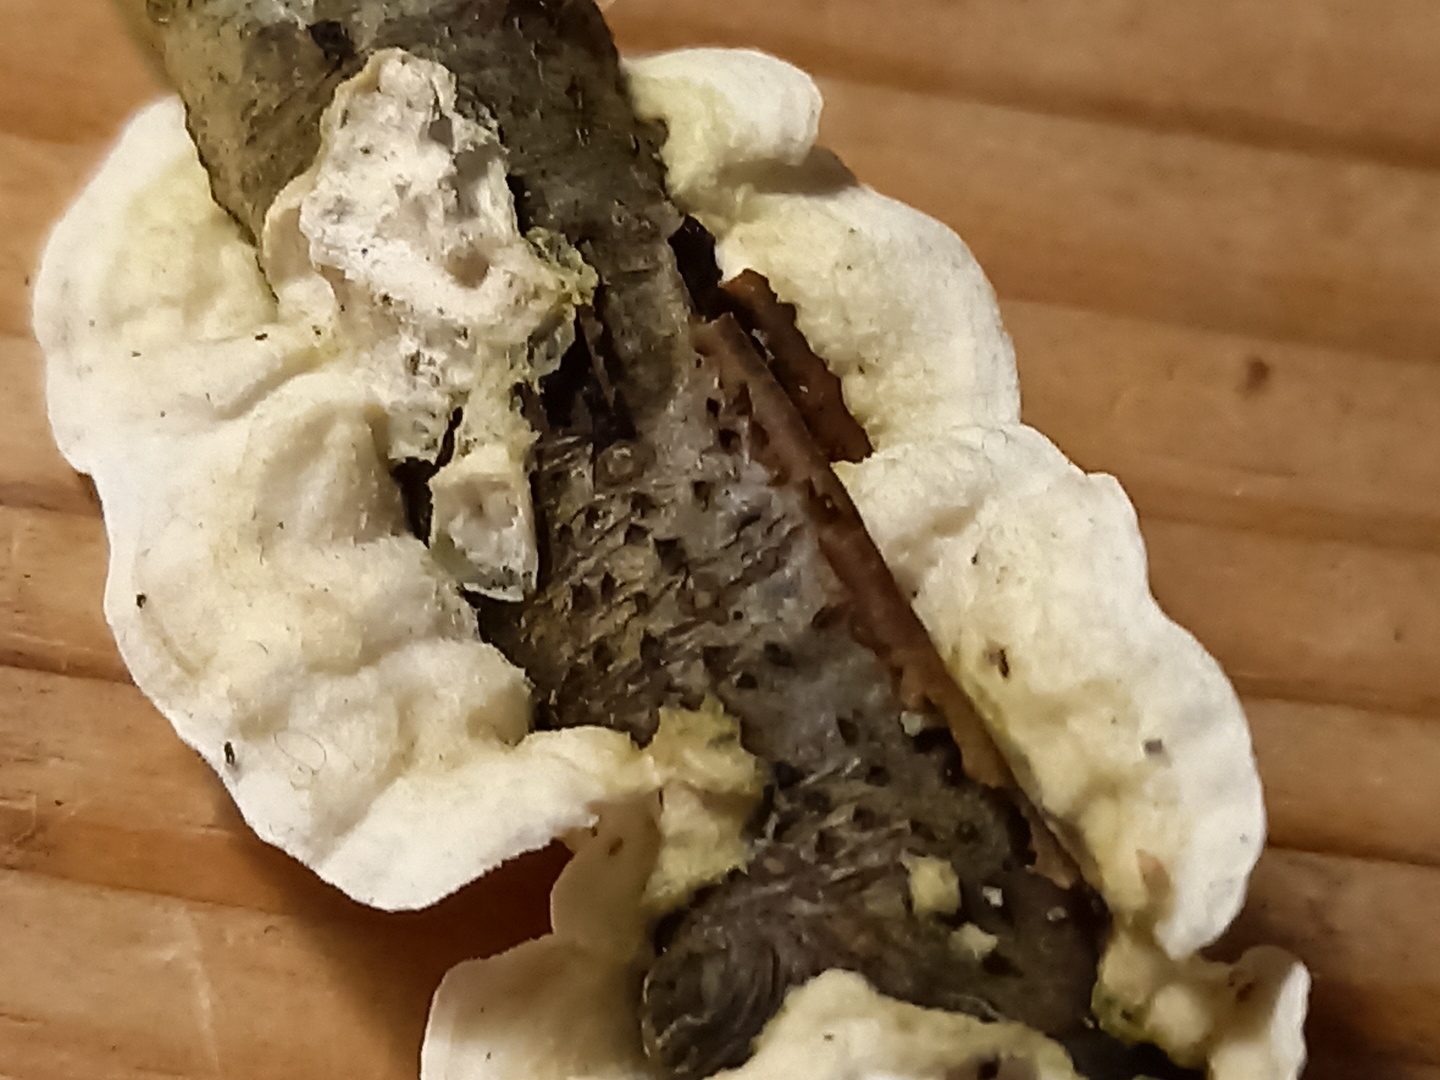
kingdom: Fungi
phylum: Basidiomycota
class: Agaricomycetes
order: Polyporales
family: Irpicaceae
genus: Byssomerulius
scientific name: Byssomerulius corium
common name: læder-åresvamp
